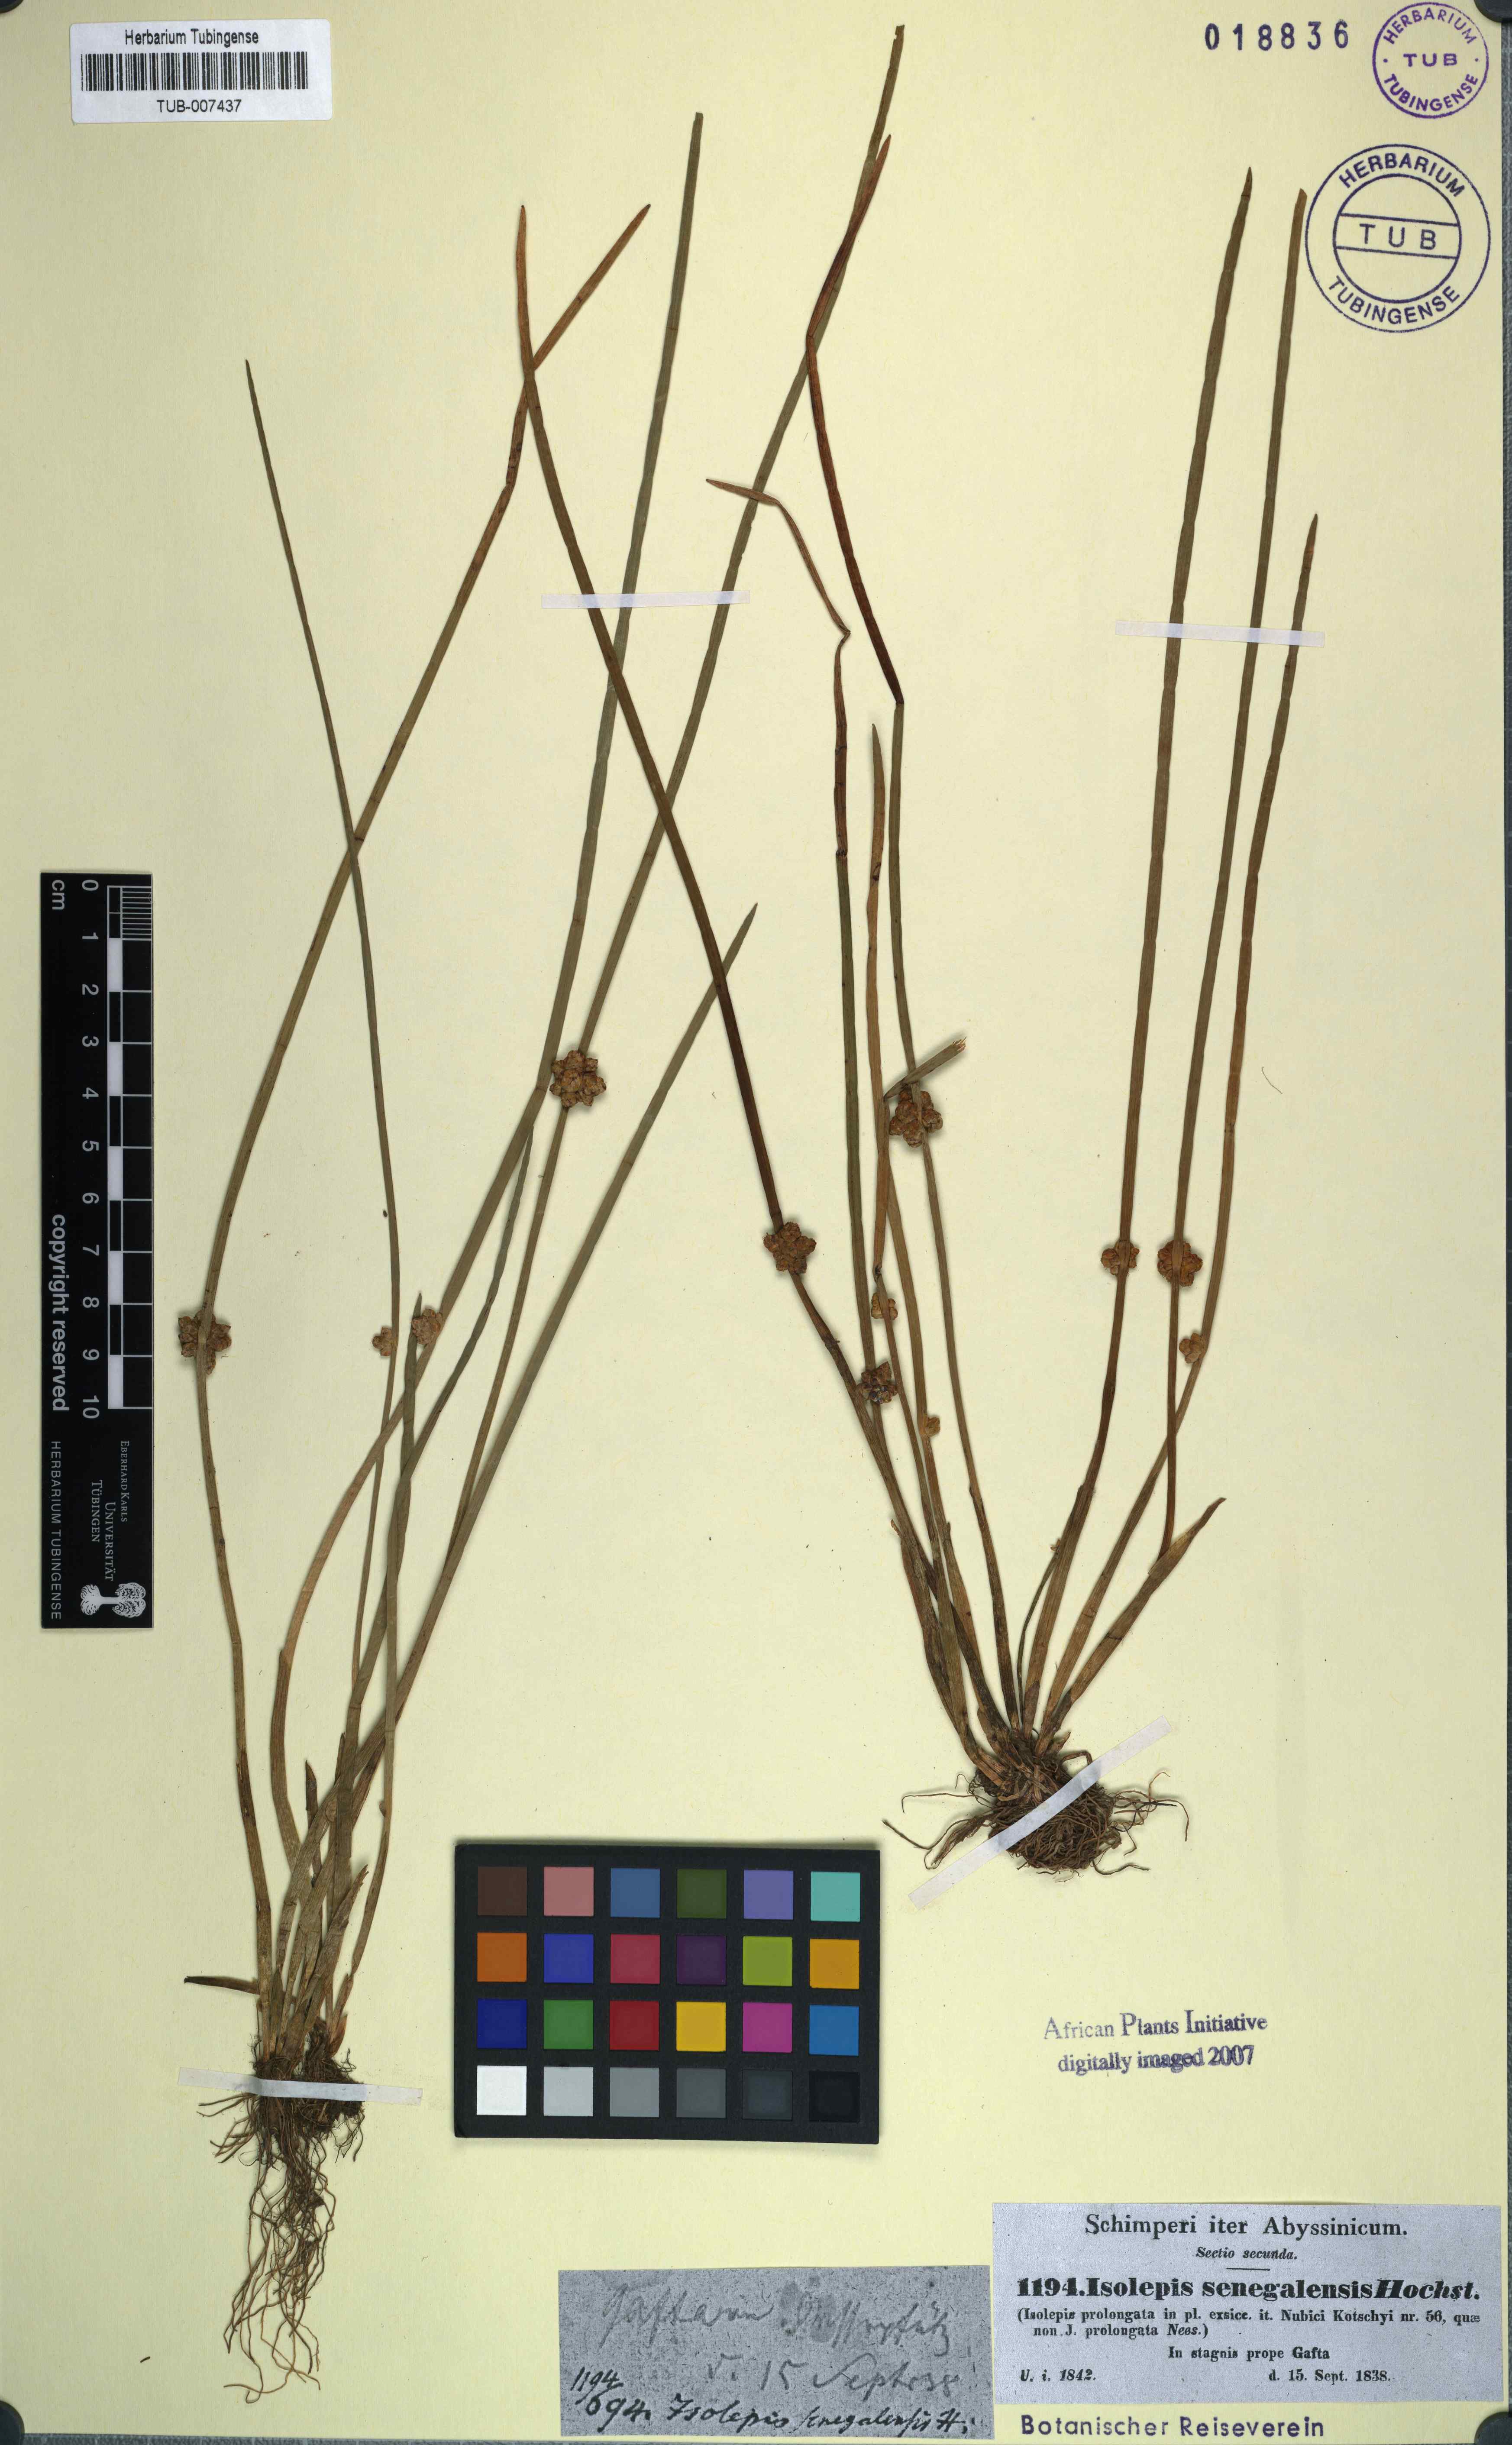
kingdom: Plantae
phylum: Tracheophyta
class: Liliopsida
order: Poales
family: Cyperaceae
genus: Schoenoplectiella
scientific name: Schoenoplectiella articulata
